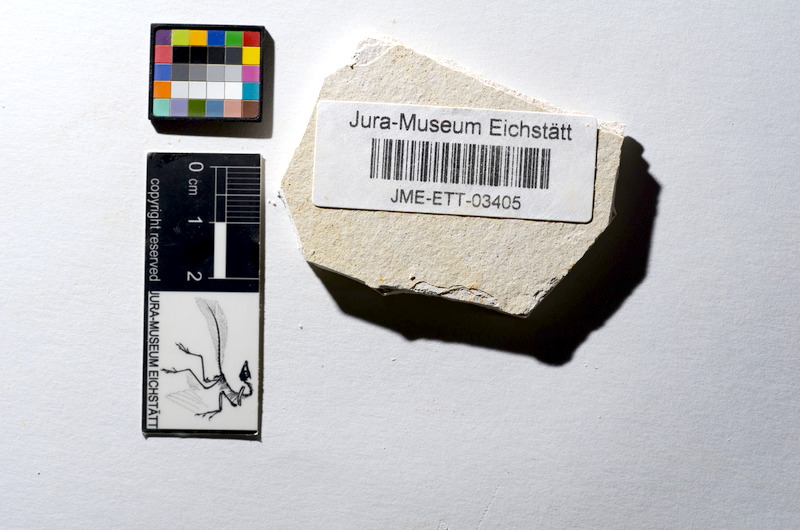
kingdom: Animalia
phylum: Chordata
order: Salmoniformes
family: Orthogonikleithridae
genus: Orthogonikleithrus
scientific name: Orthogonikleithrus hoelli
